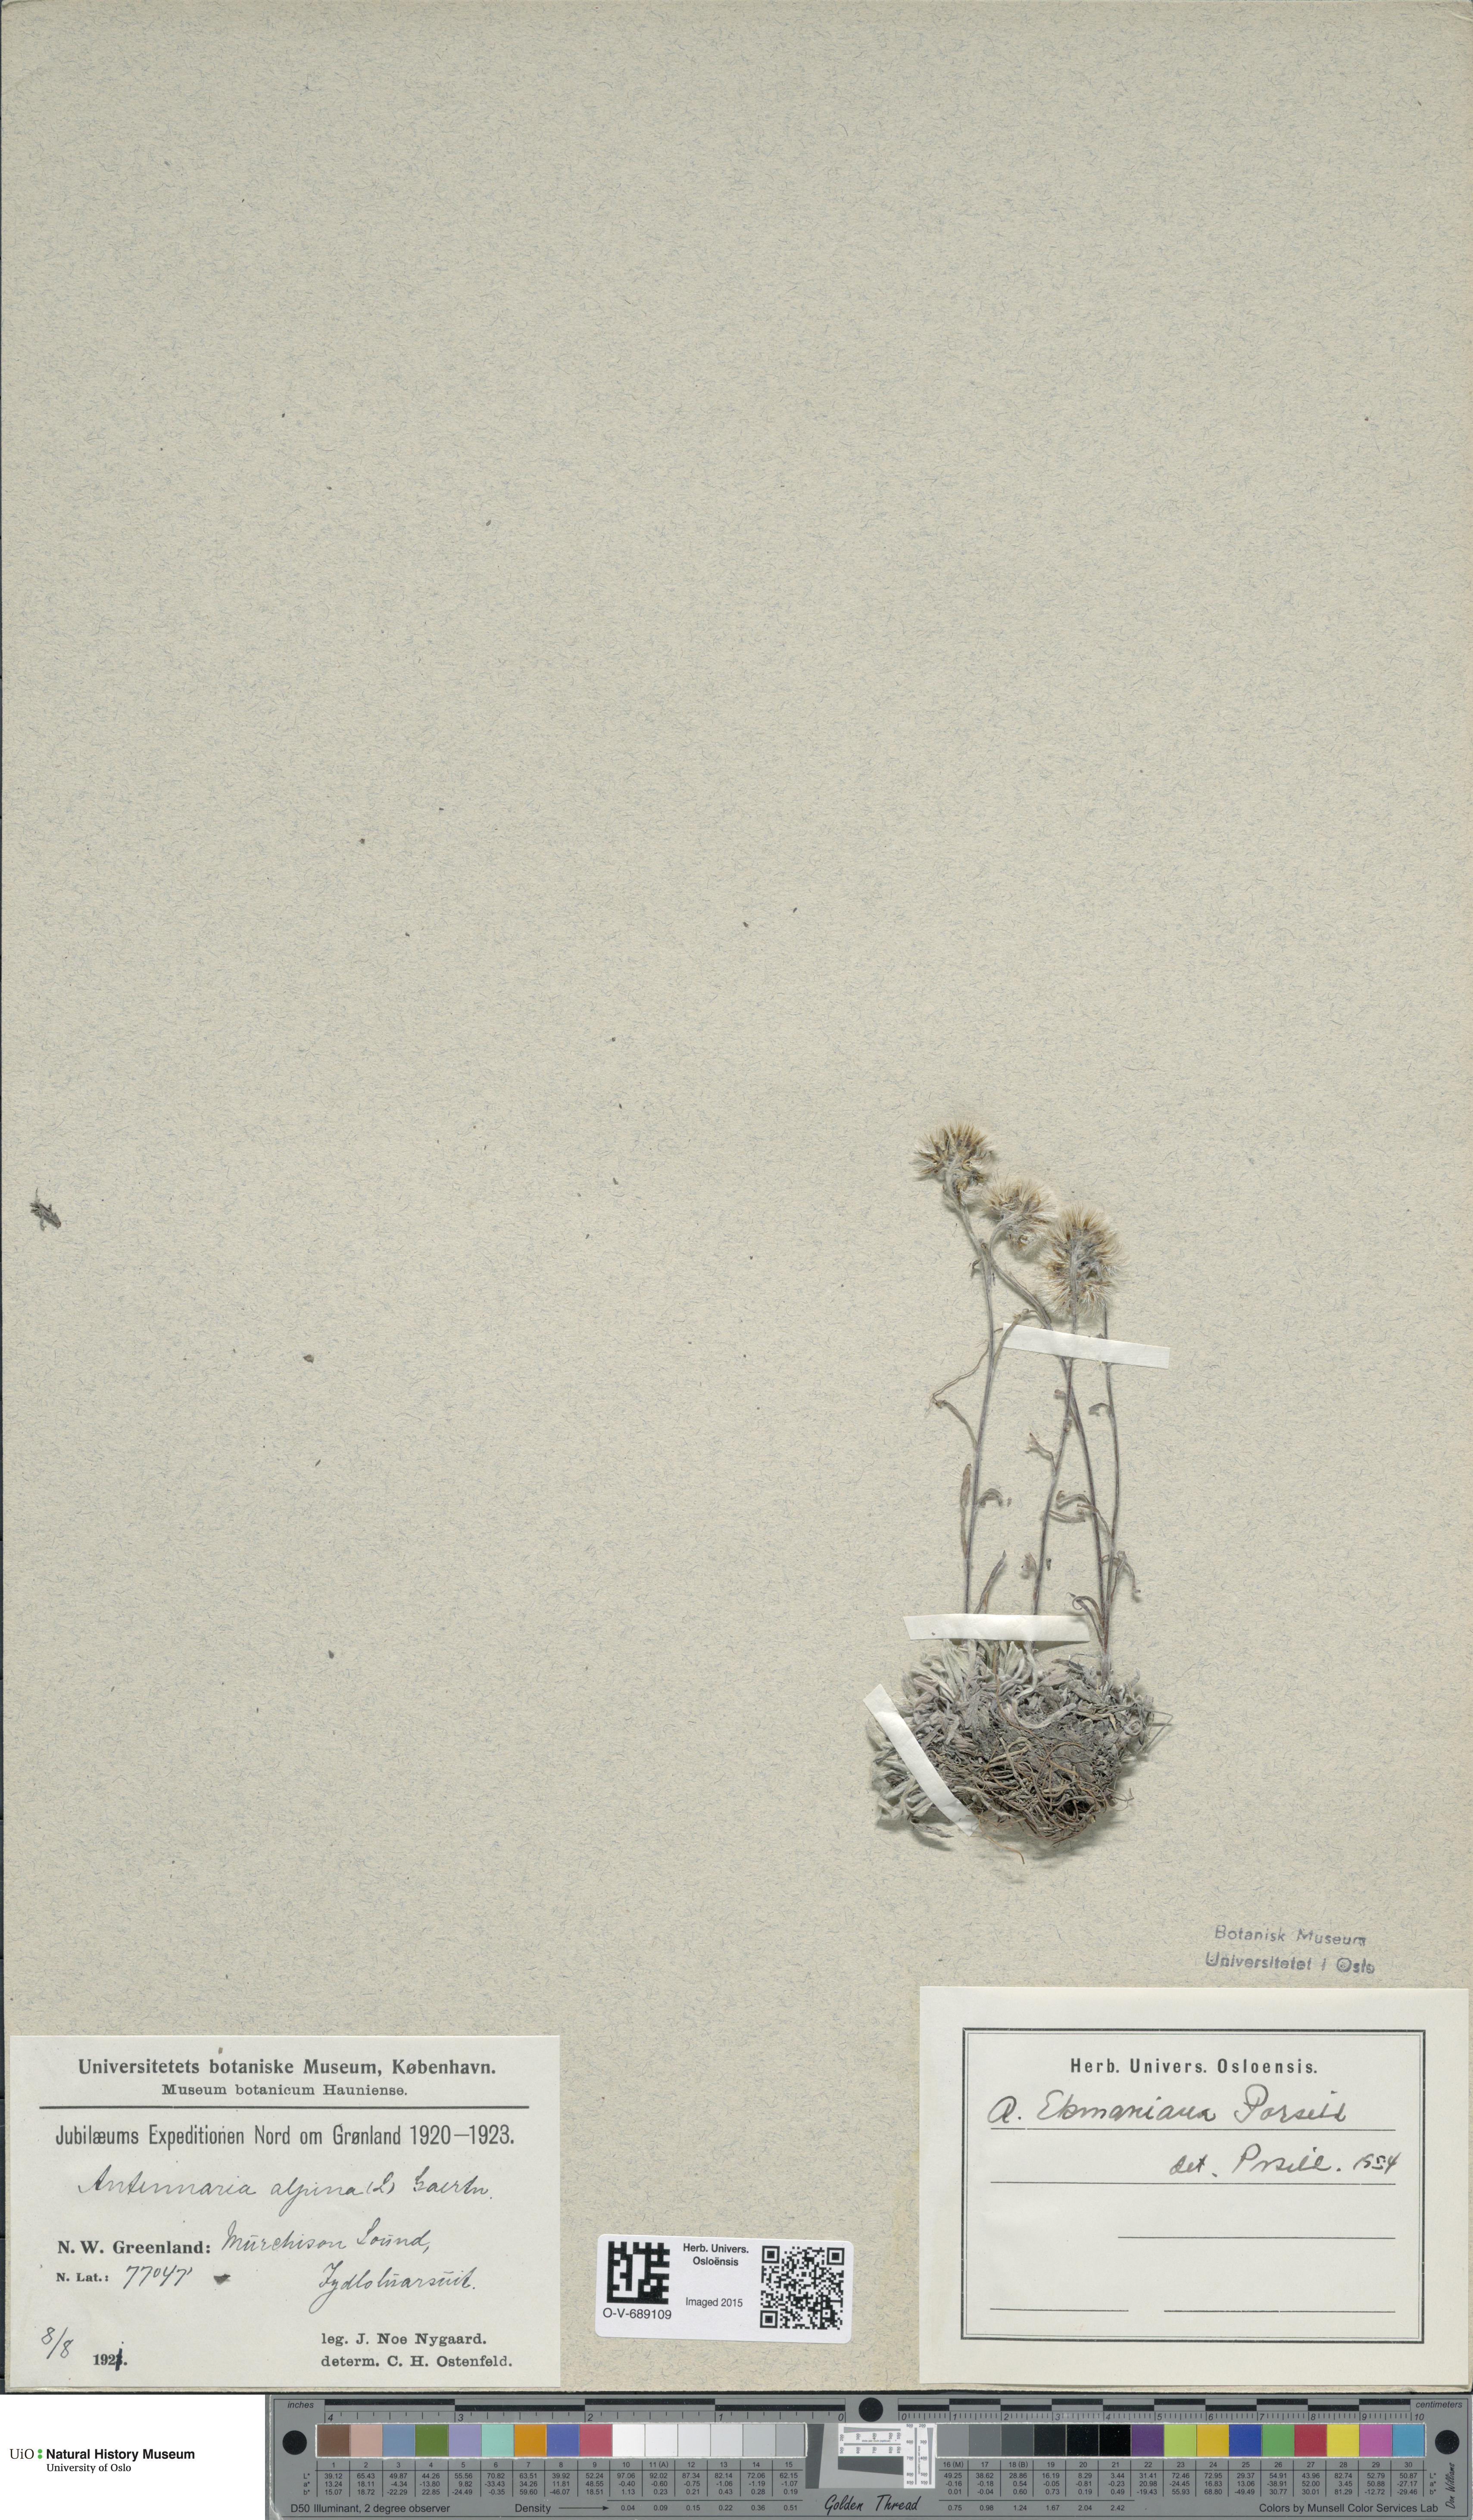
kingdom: Plantae
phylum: Tracheophyta
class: Magnoliopsida
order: Asterales
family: Asteraceae
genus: Antennaria
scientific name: Antennaria friesiana
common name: Fries' pussytoes
